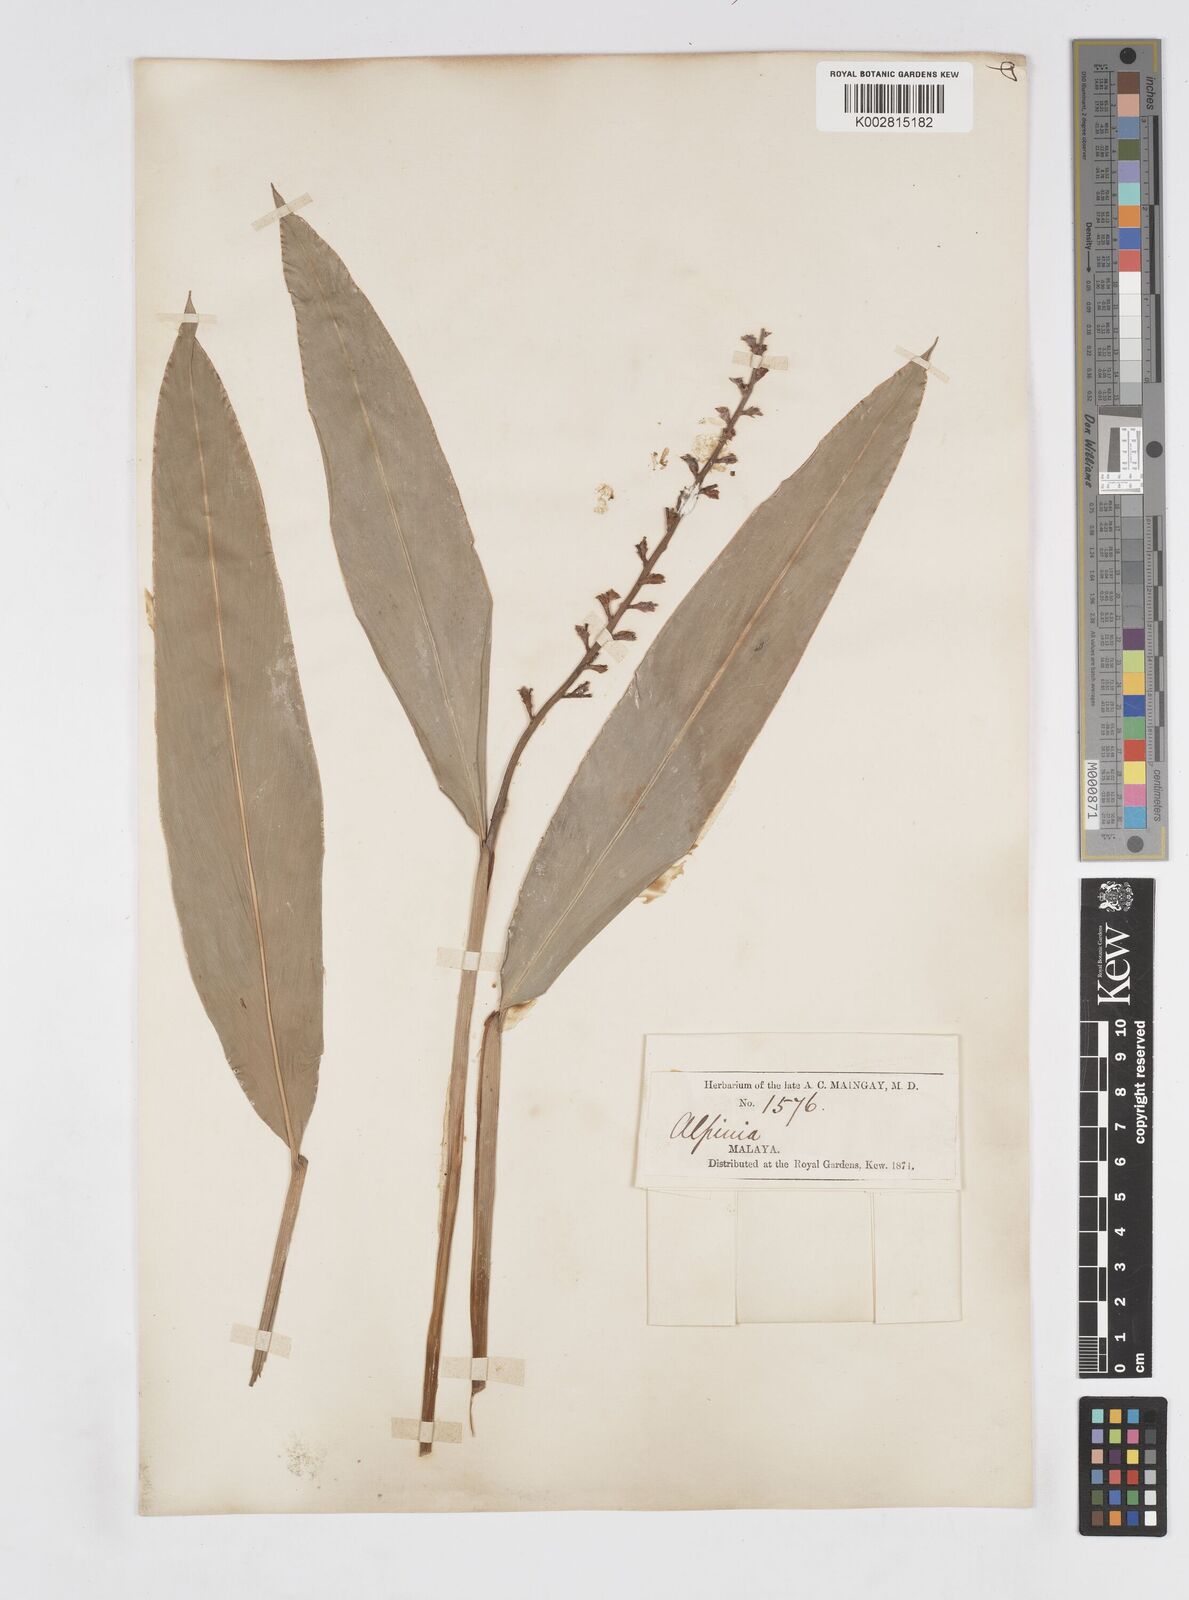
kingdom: Plantae
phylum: Tracheophyta
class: Liliopsida
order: Zingiberales
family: Zingiberaceae
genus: Alpinia
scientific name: Alpinia conchigera
